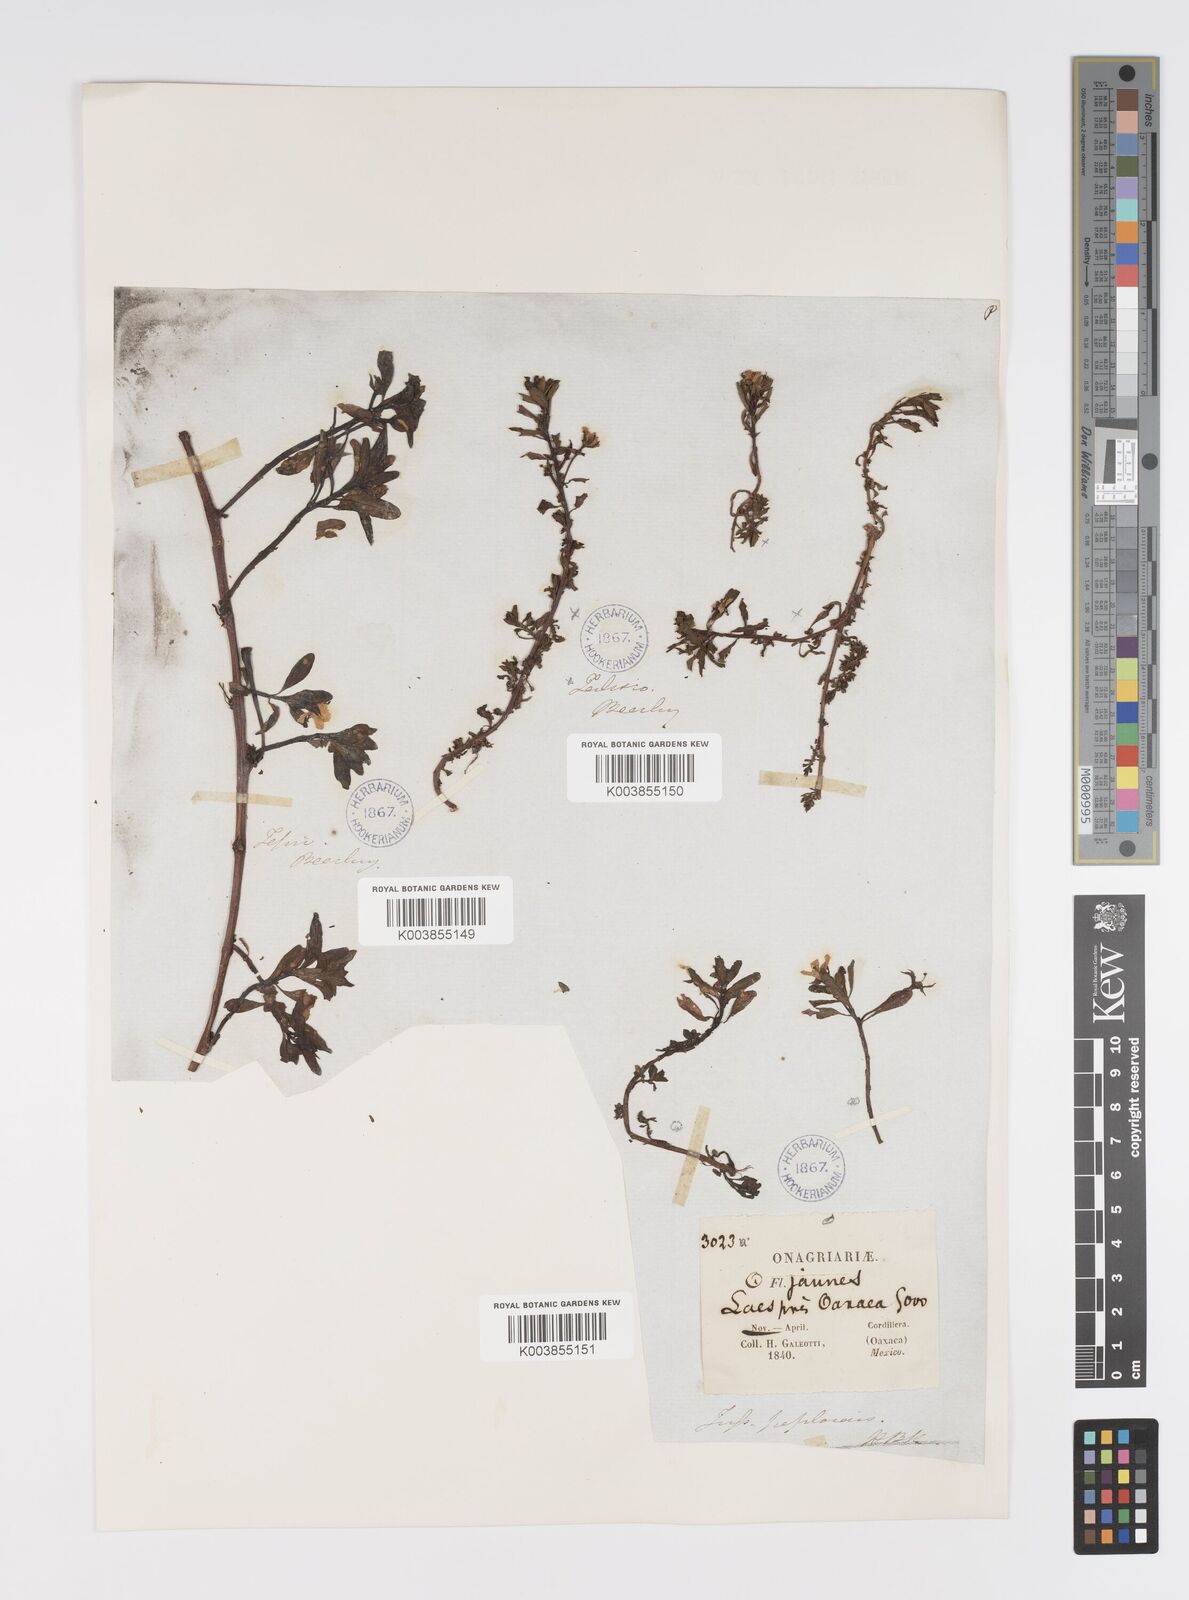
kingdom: Plantae
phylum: Tracheophyta
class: Magnoliopsida
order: Myrtales
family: Onagraceae
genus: Ludwigia
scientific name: Ludwigia adscendens
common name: Creeping water primrose
